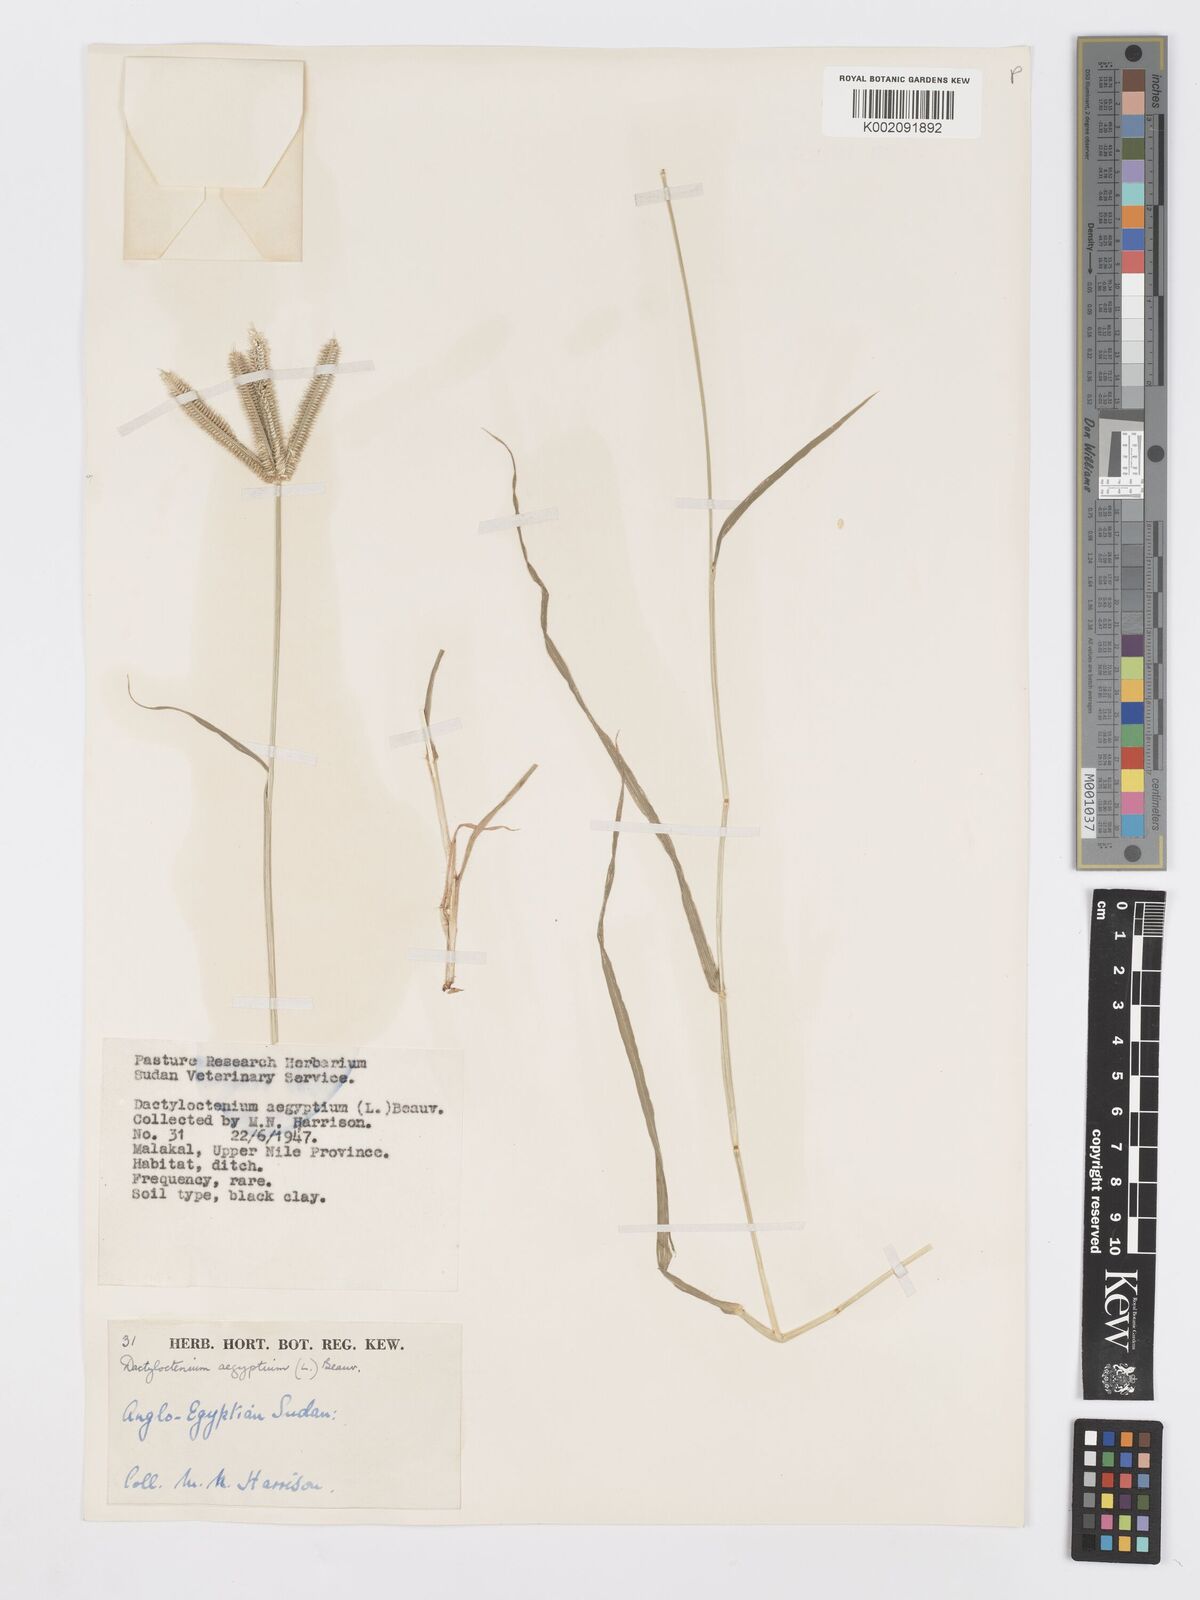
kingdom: Plantae
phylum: Tracheophyta
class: Liliopsida
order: Poales
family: Poaceae
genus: Dactyloctenium
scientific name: Dactyloctenium aegyptium
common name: Egyptian grass
